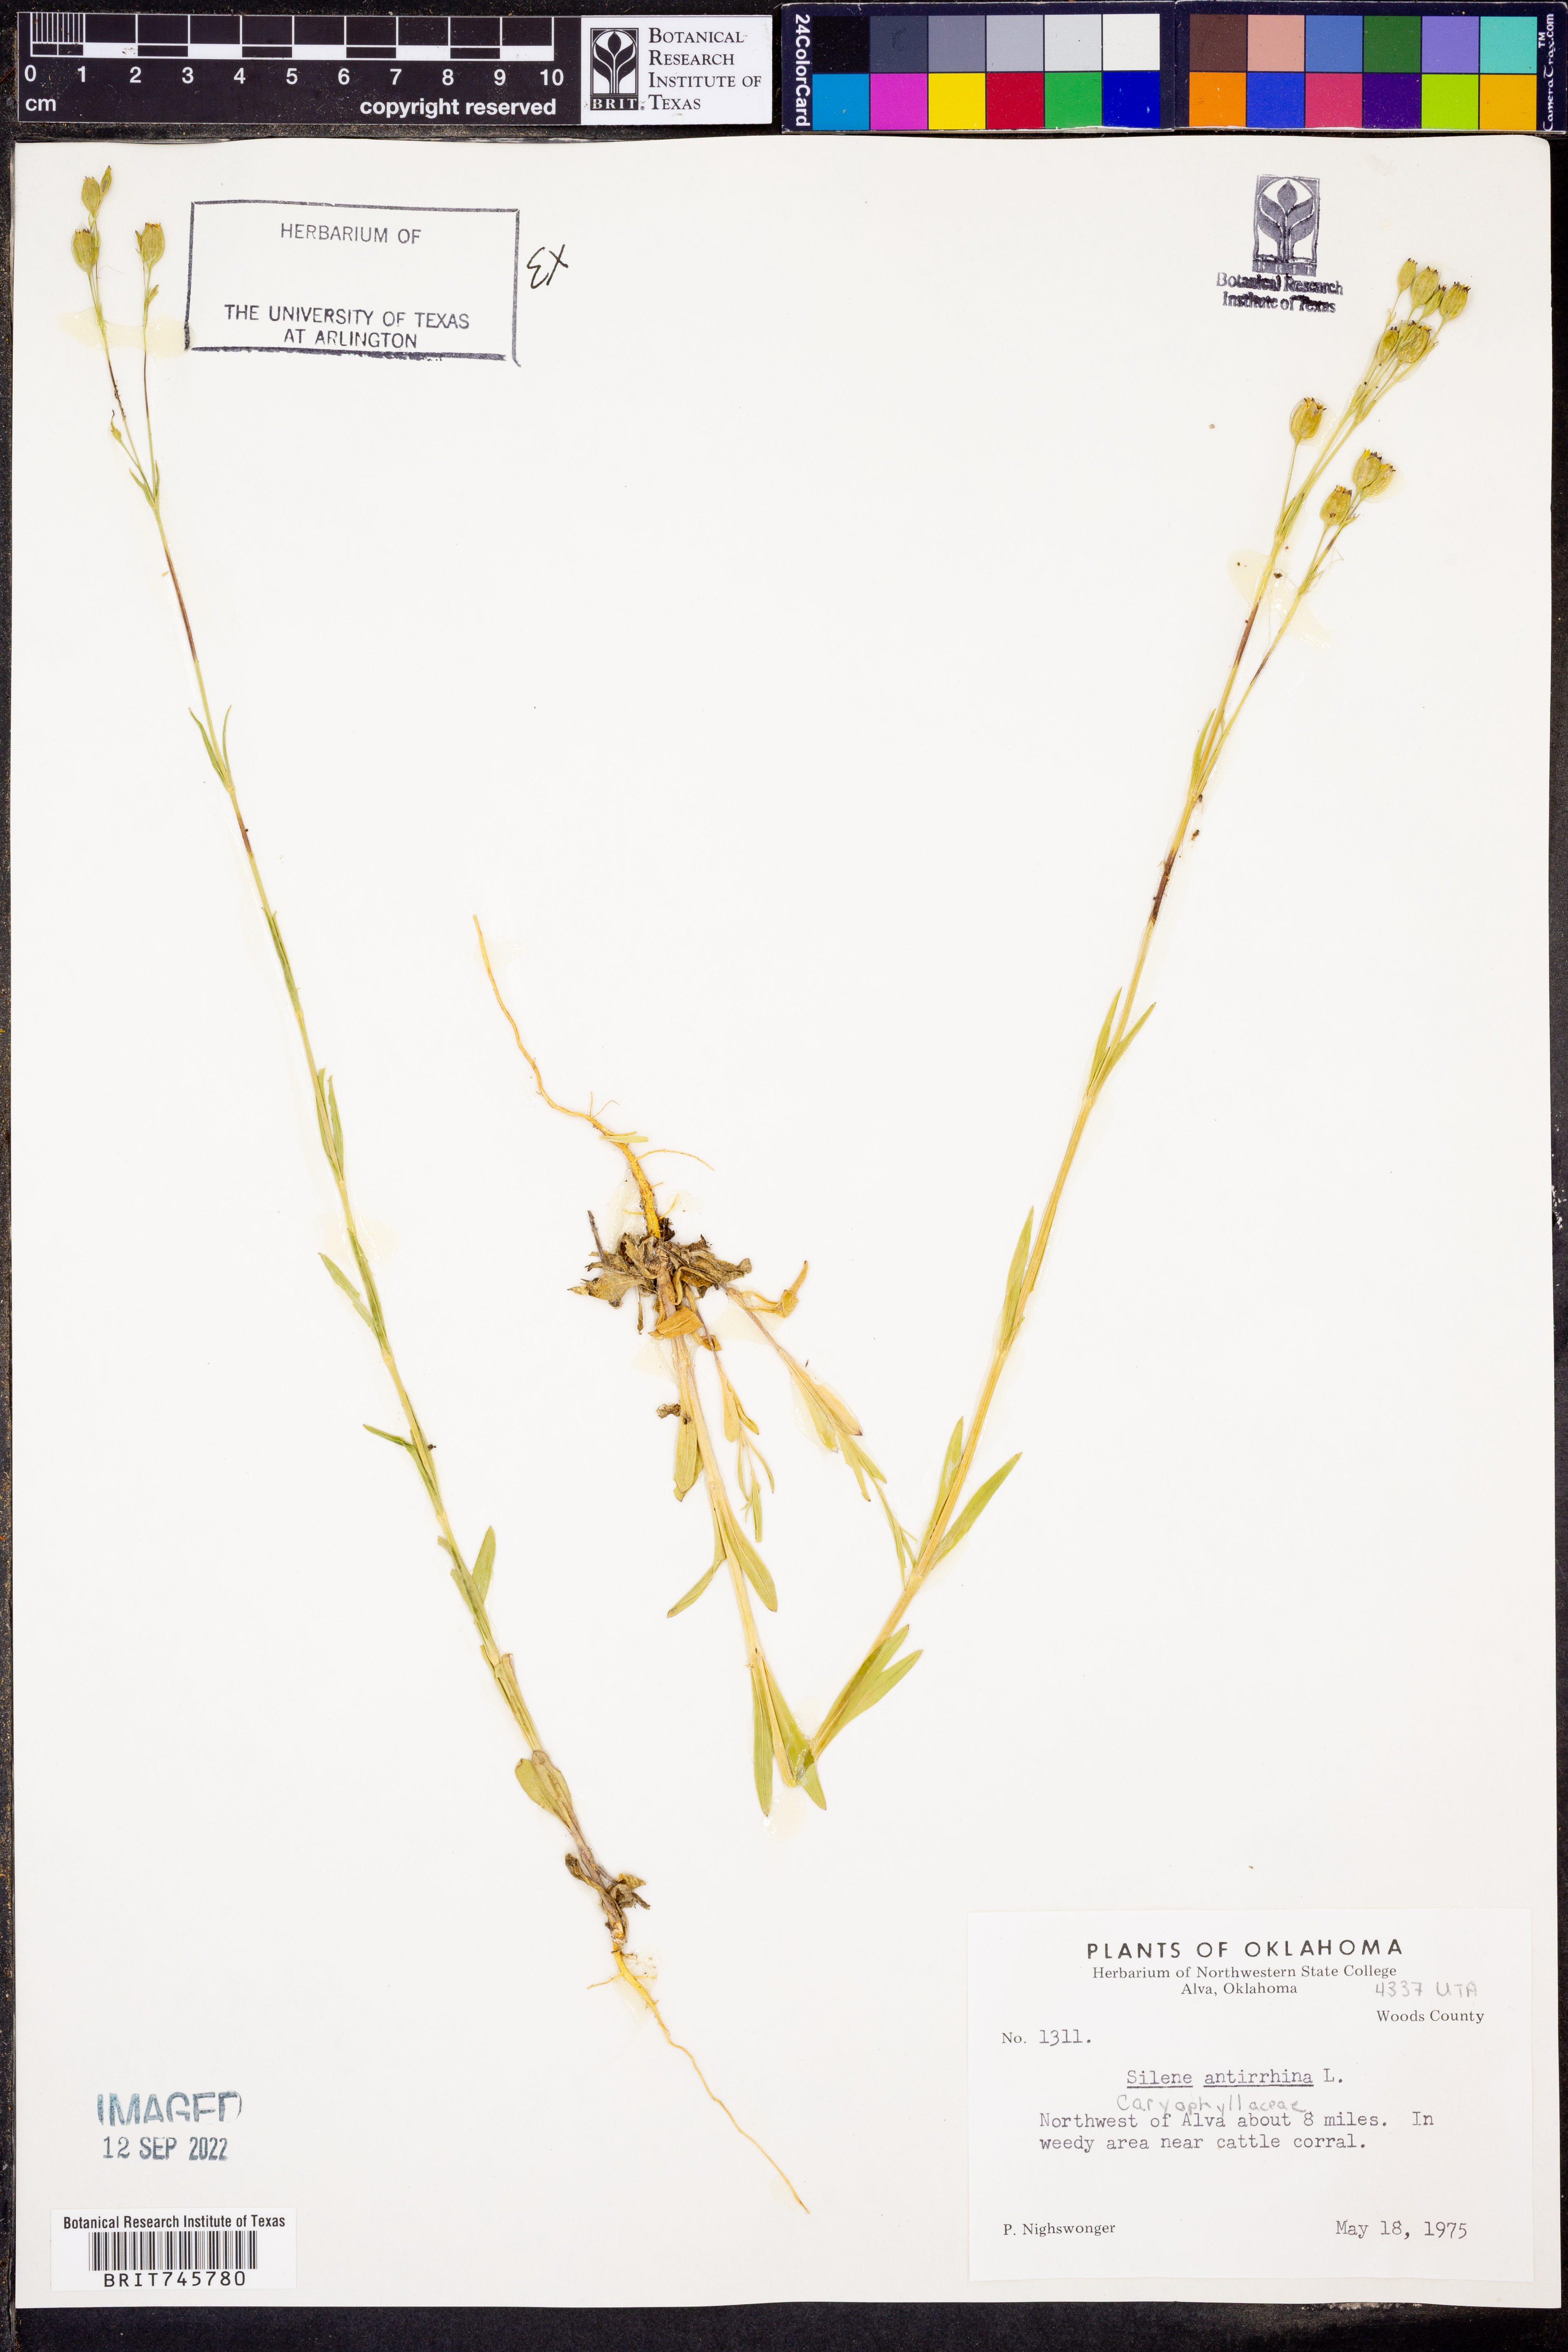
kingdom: Plantae
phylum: Tracheophyta
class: Magnoliopsida
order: Caryophyllales
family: Caryophyllaceae
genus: Silene
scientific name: Silene antirrhina
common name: Sleepy catchfly
